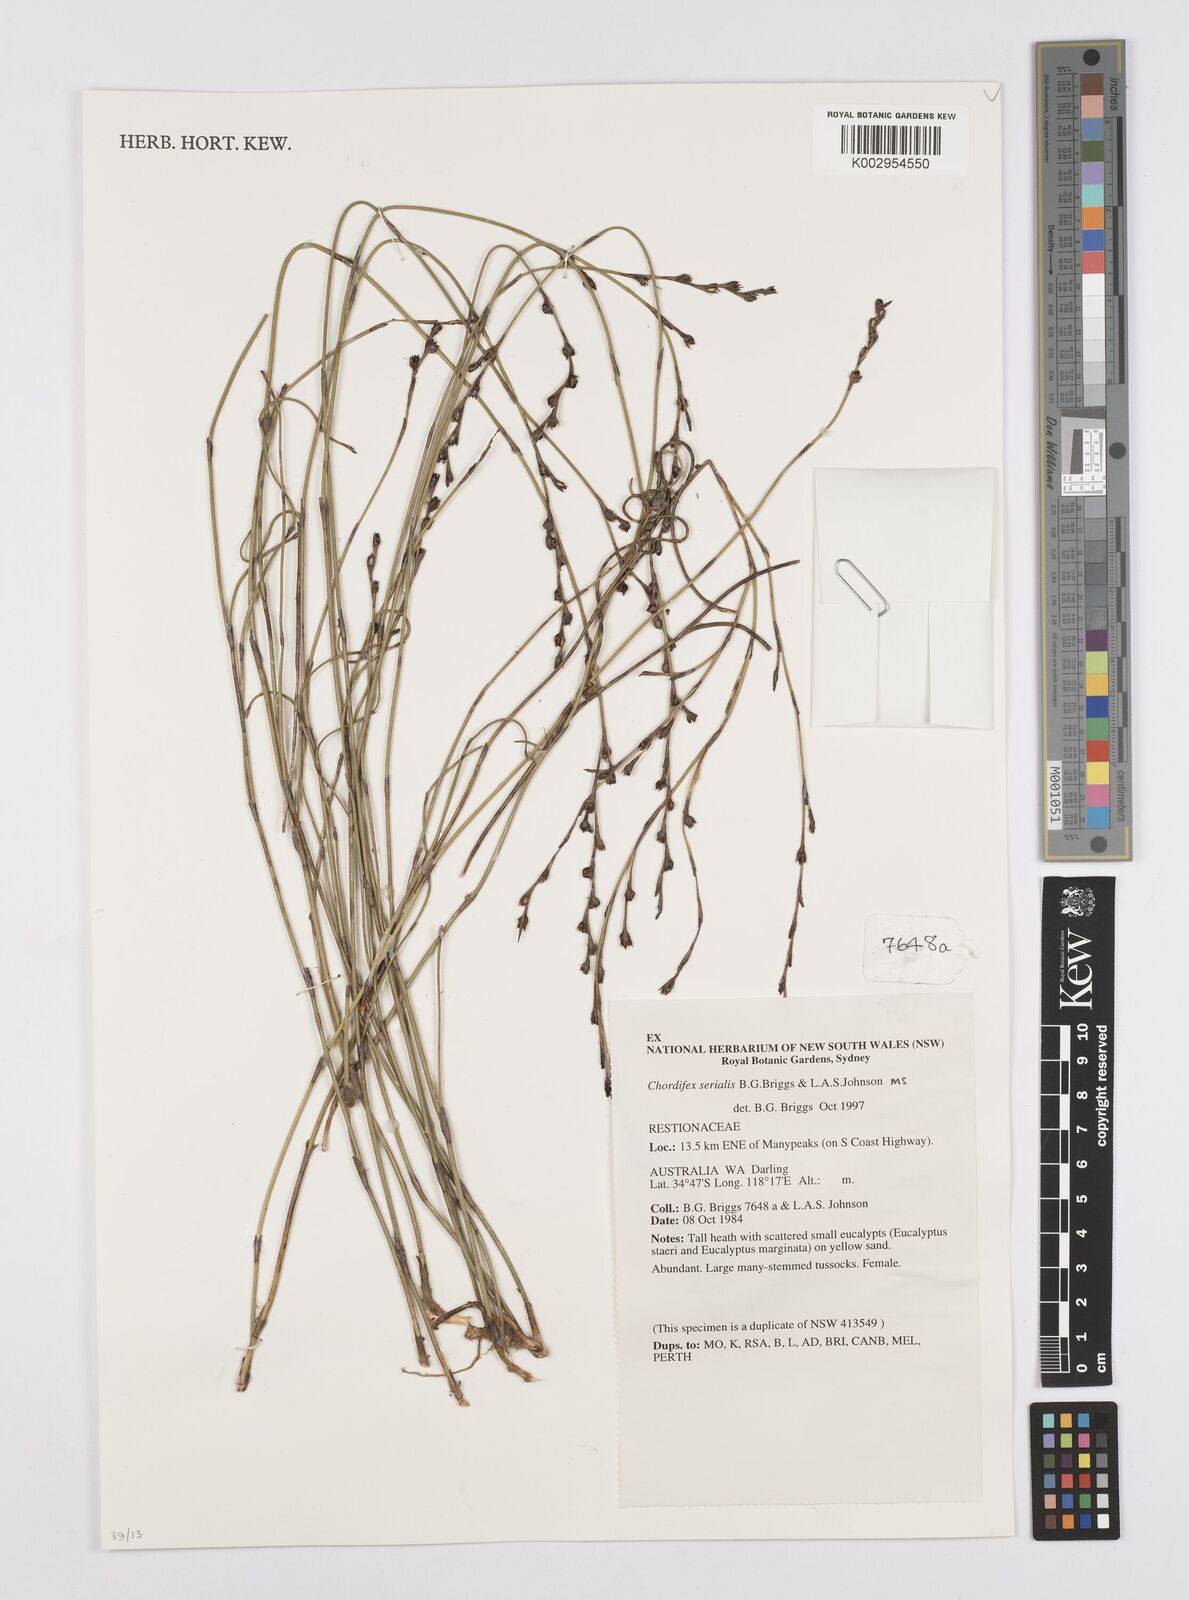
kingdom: Plantae
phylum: Tracheophyta
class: Liliopsida
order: Poales
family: Restionaceae
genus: Chordifex
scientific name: Chordifex isomorphus
